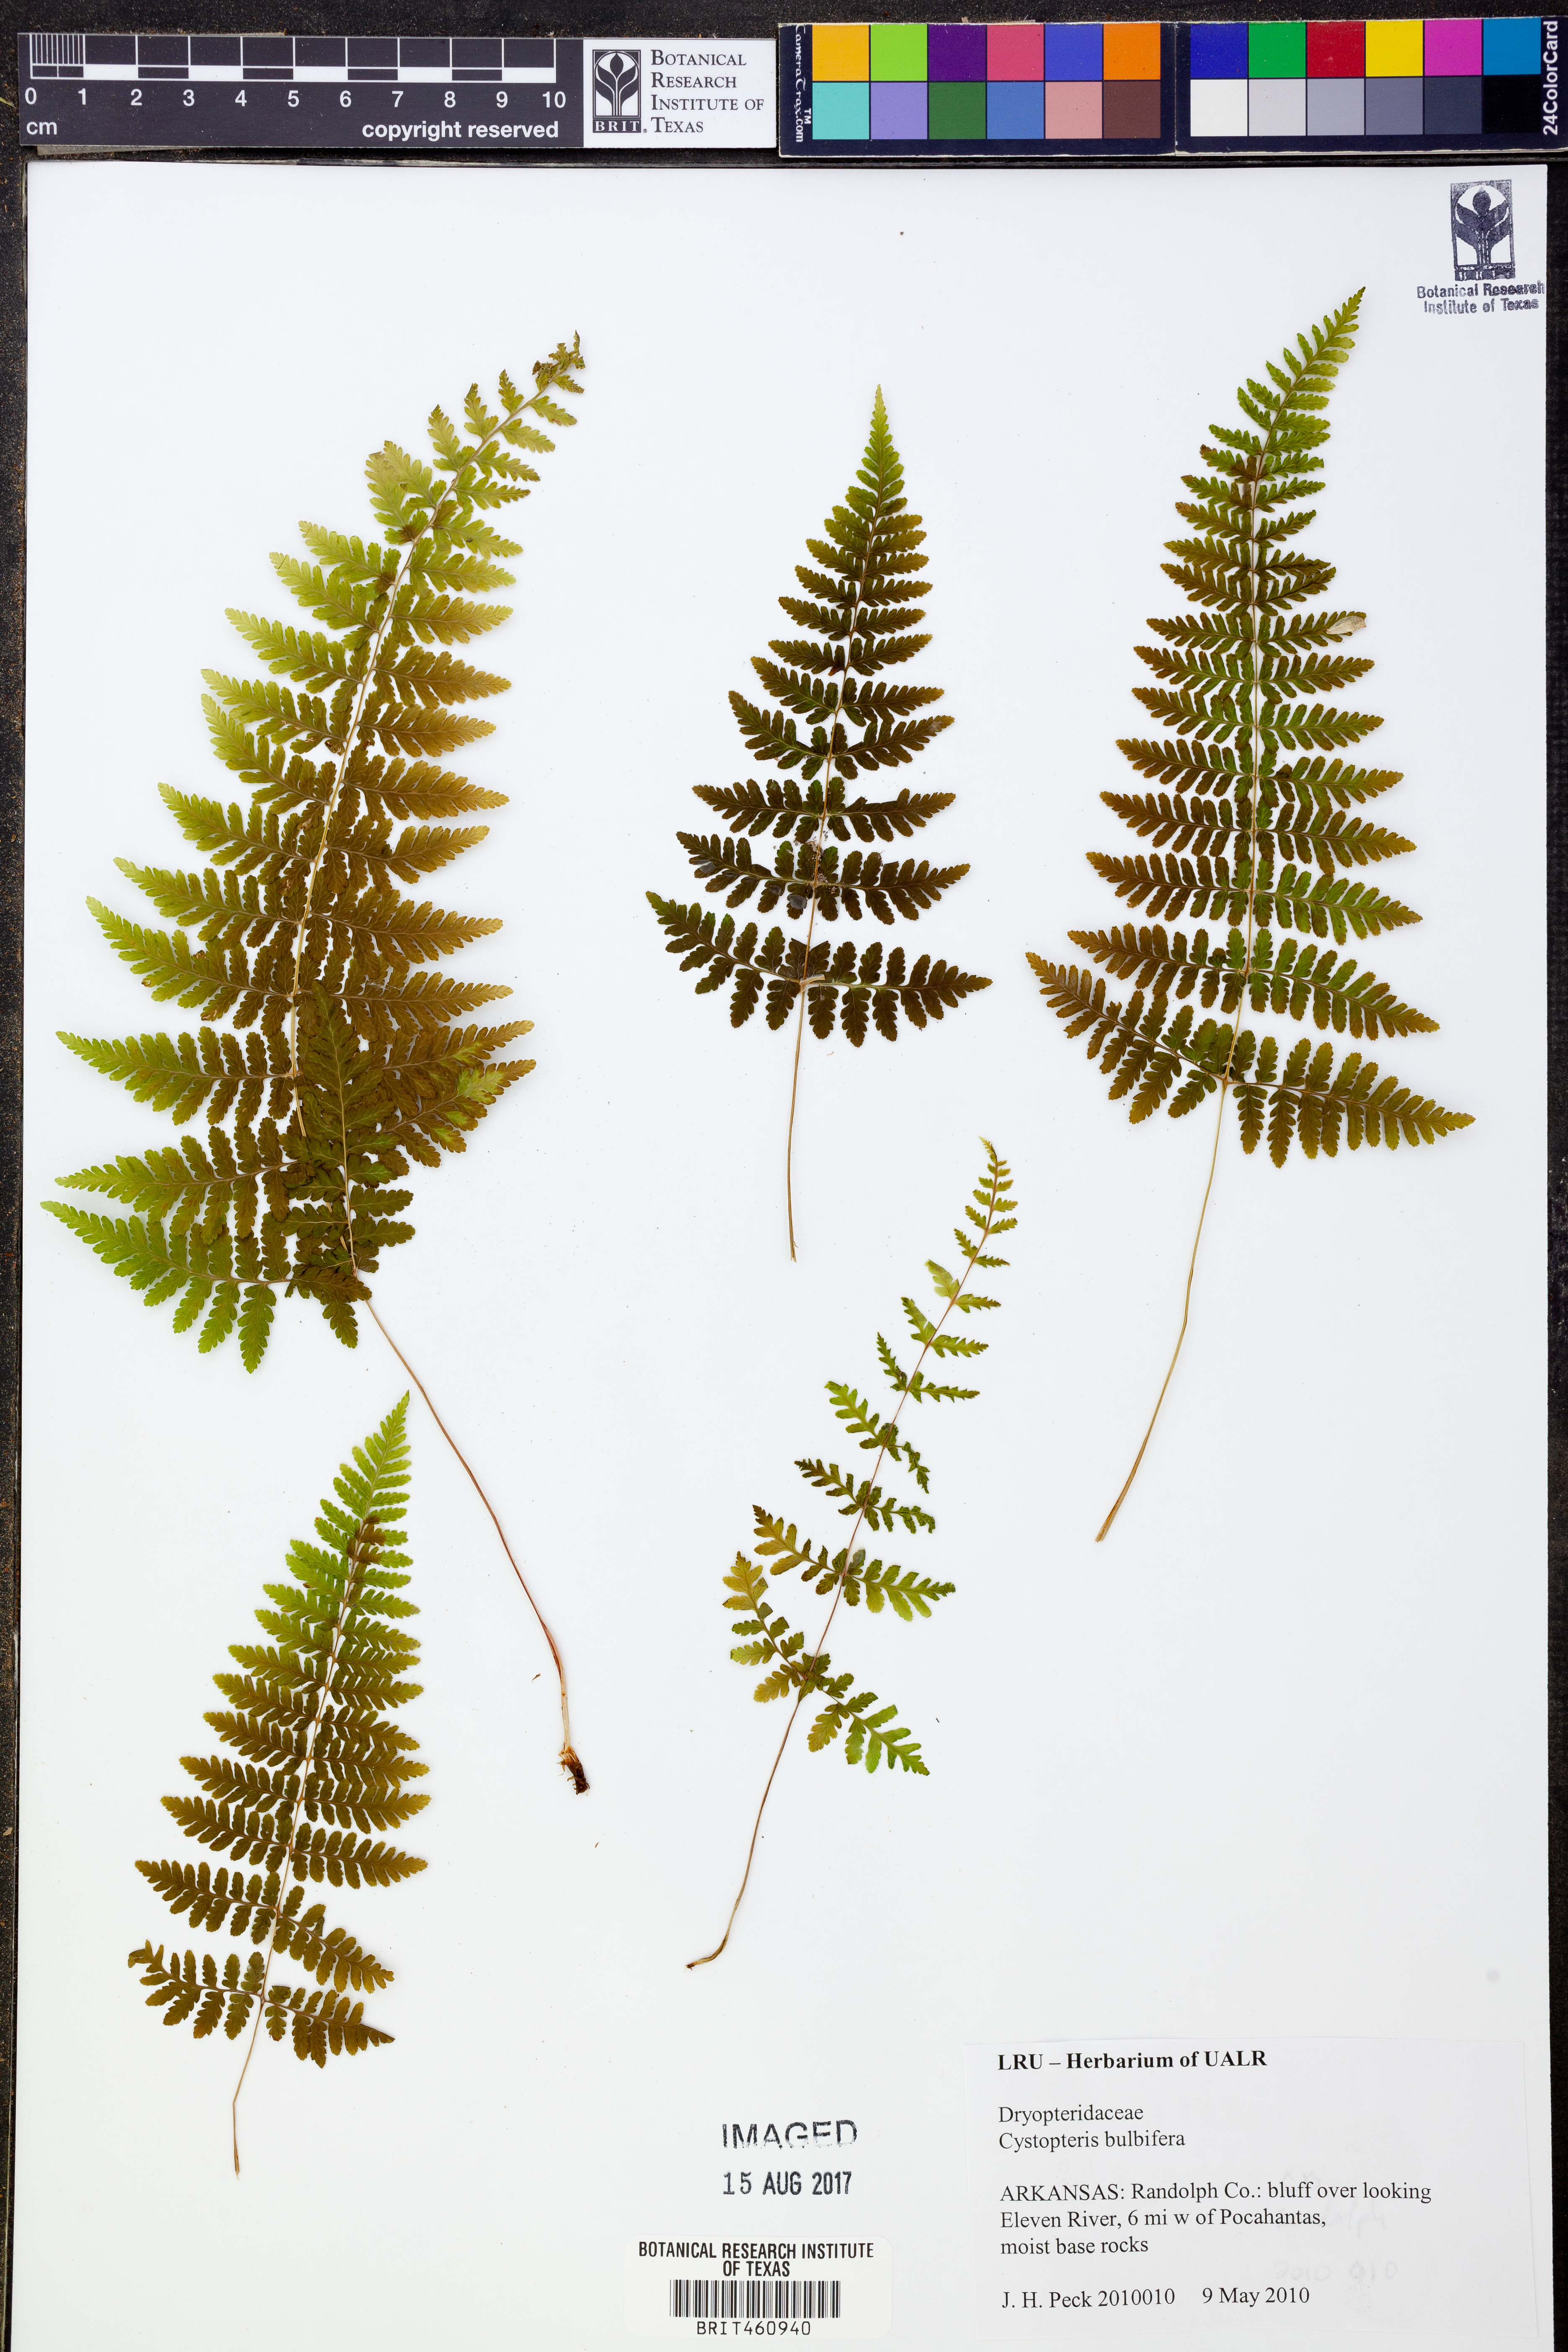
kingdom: Plantae
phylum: Tracheophyta
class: Polypodiopsida
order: Polypodiales
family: Cystopteridaceae
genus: Cystopteris
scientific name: Cystopteris bulbifera
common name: Bulblet bladder fern
